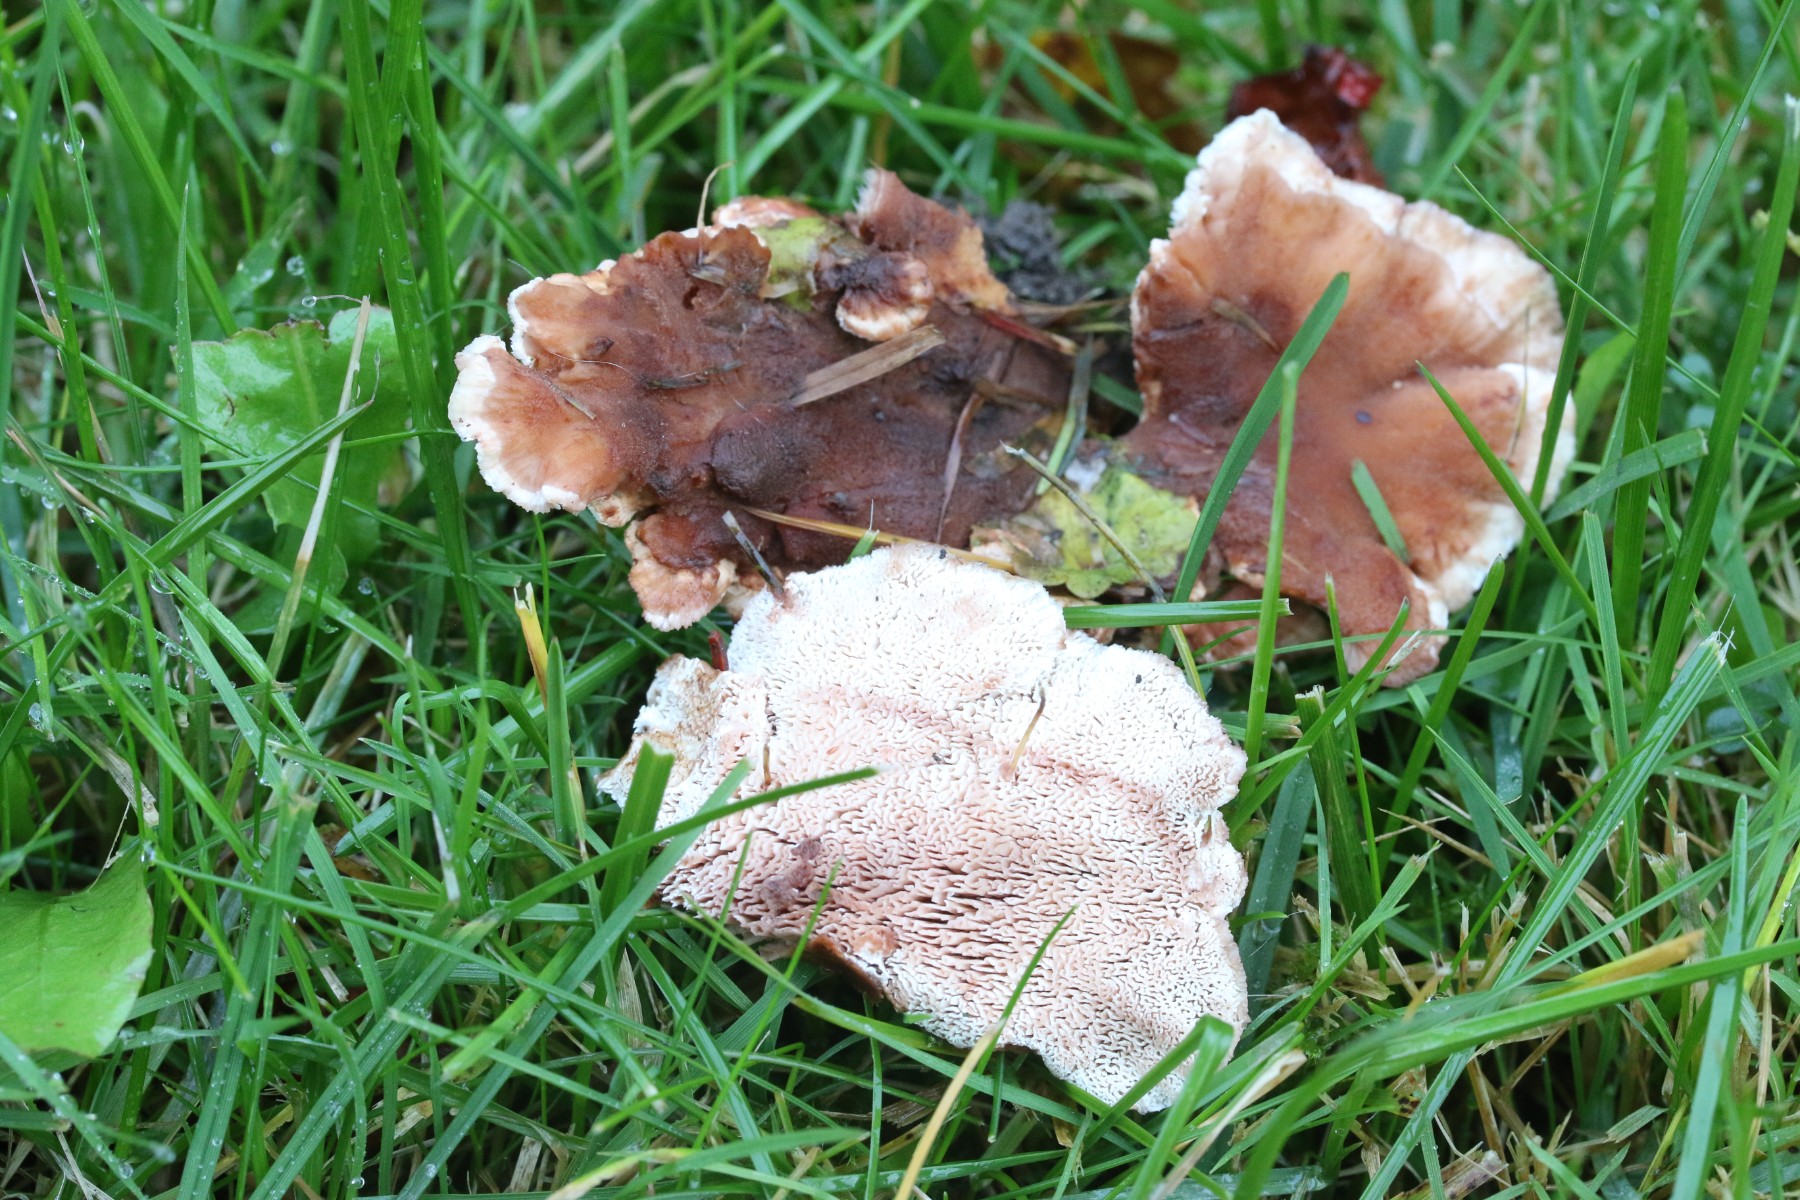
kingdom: Fungi
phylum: Basidiomycota
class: Agaricomycetes
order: Polyporales
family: Podoscyphaceae
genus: Abortiporus
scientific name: Abortiporus biennis
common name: rødmende pjalteporesvamp
